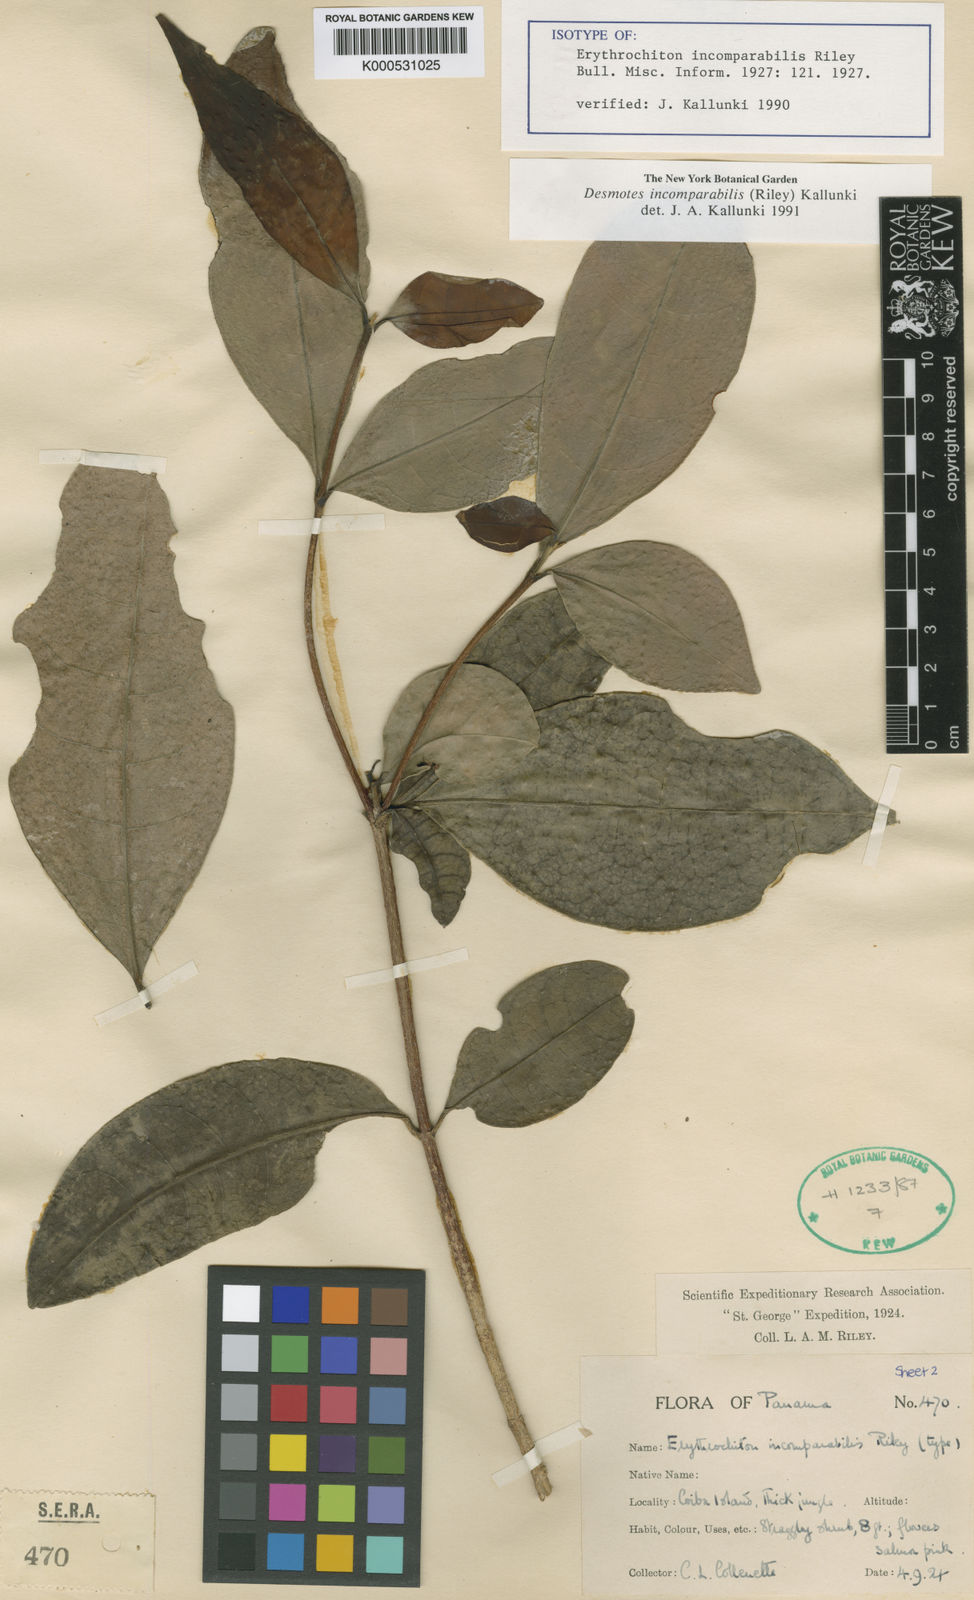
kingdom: Plantae
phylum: Tracheophyta
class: Magnoliopsida
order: Sapindales
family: Rutaceae
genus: Desmotes
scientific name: Desmotes incomparabilis
